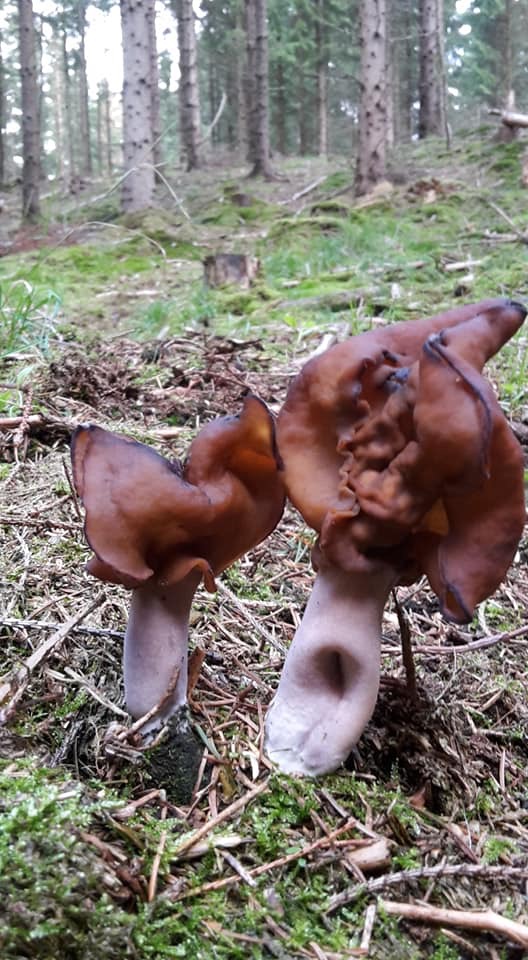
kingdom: Fungi
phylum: Ascomycota
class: Pezizomycetes
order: Pezizales
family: Discinaceae
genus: Gyromitra
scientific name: Gyromitra infula
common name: bispehue-stenmorkel
